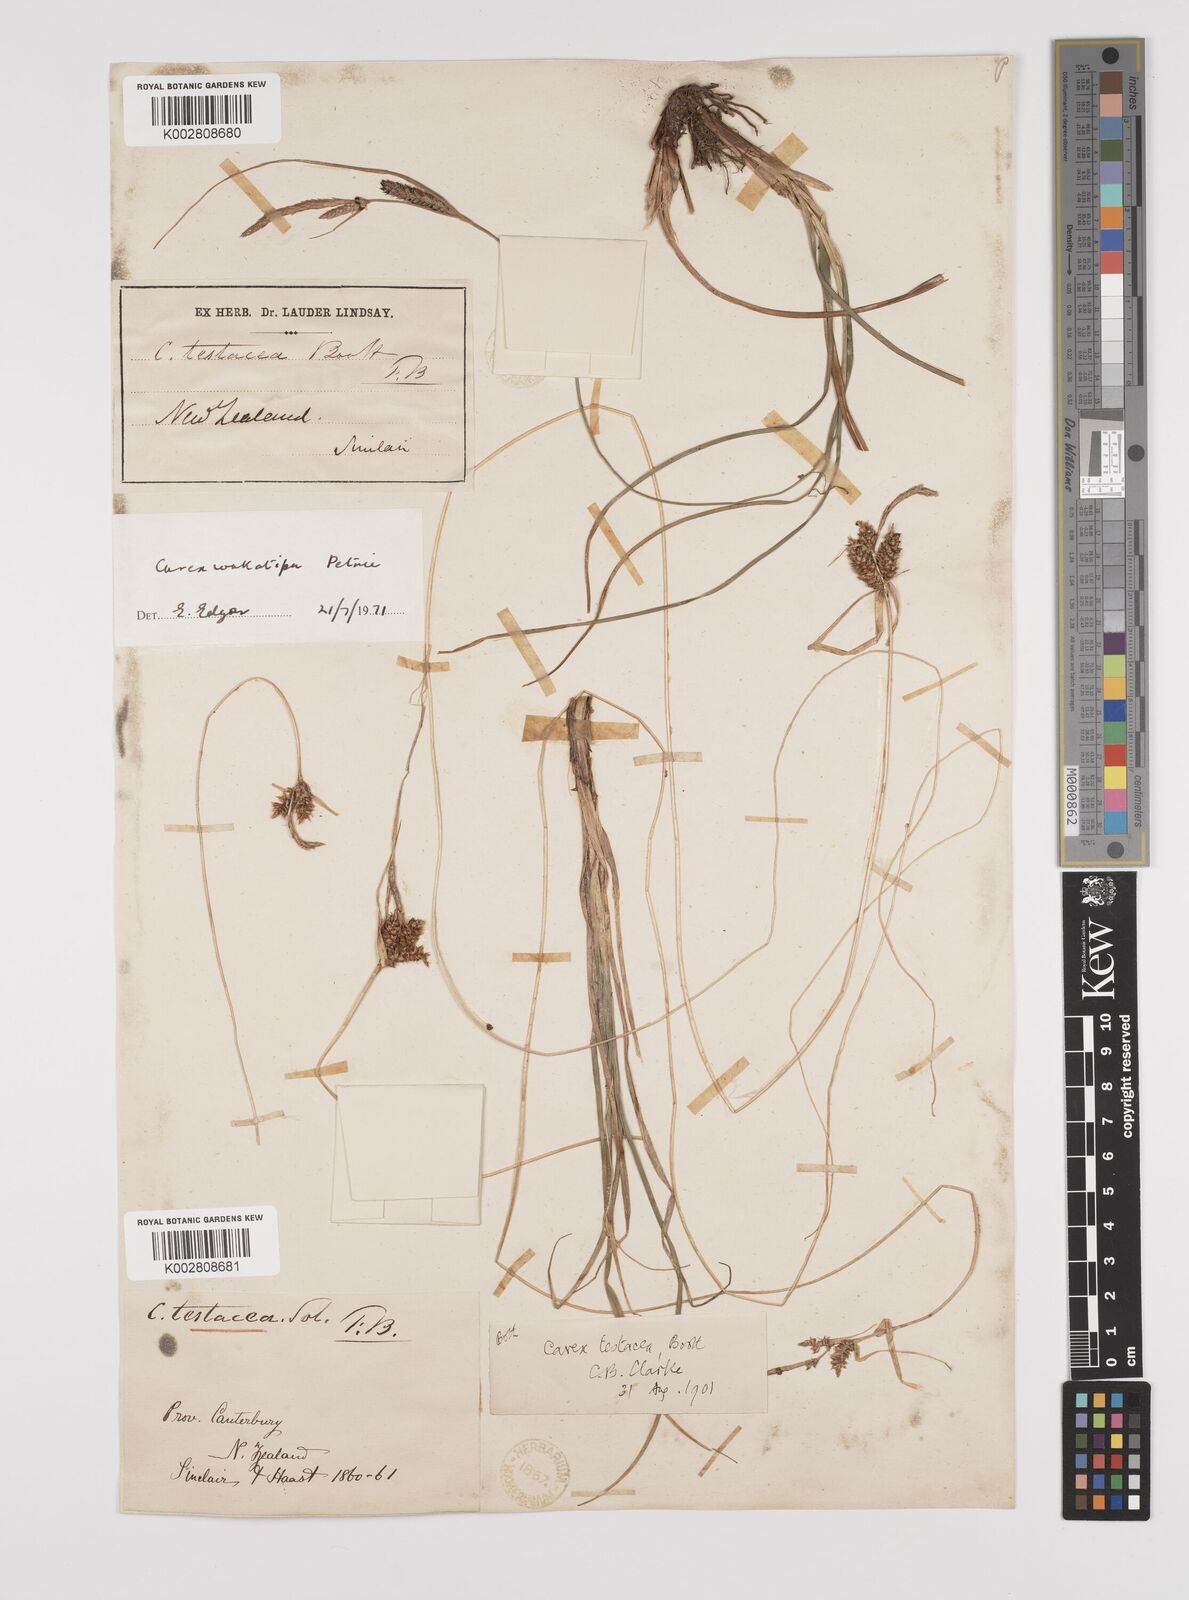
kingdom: Plantae
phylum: Tracheophyta
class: Liliopsida
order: Poales
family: Cyperaceae
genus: Carex
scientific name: Carex wakatipu
